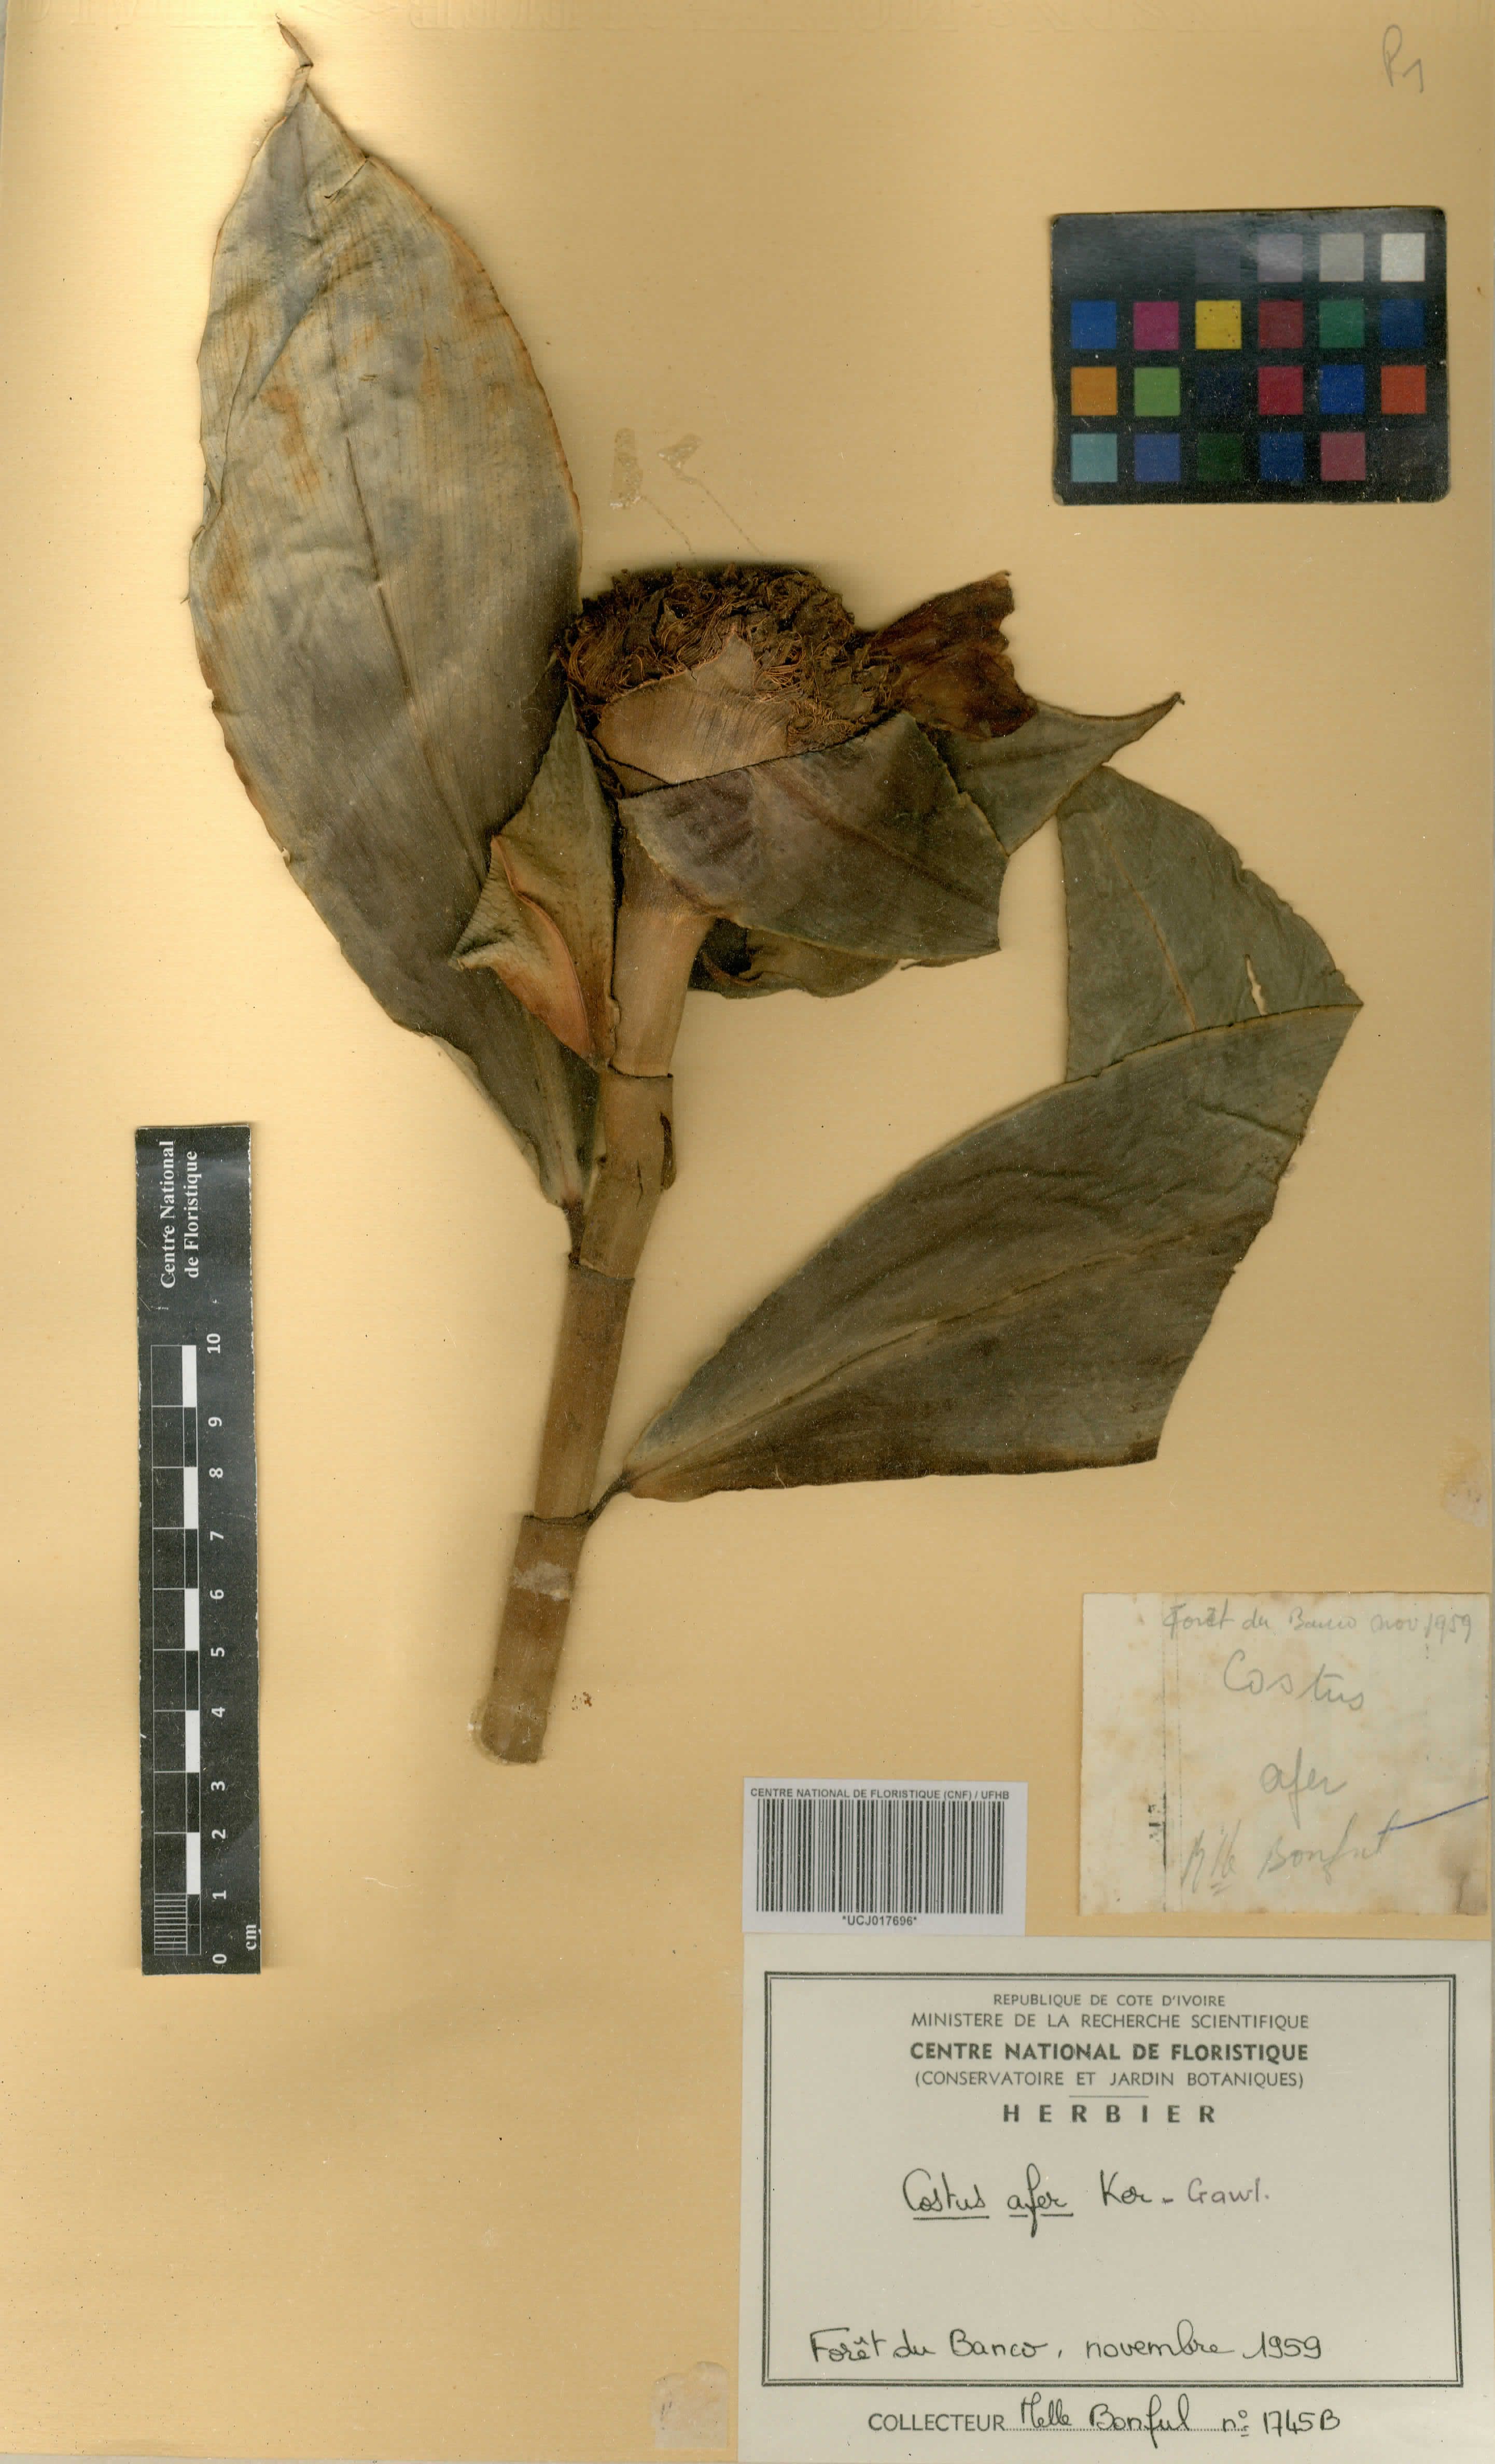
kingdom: Plantae
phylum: Tracheophyta
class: Liliopsida
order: Zingiberales
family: Costaceae
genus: Costus
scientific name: Costus afer
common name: Spiral-ginger
